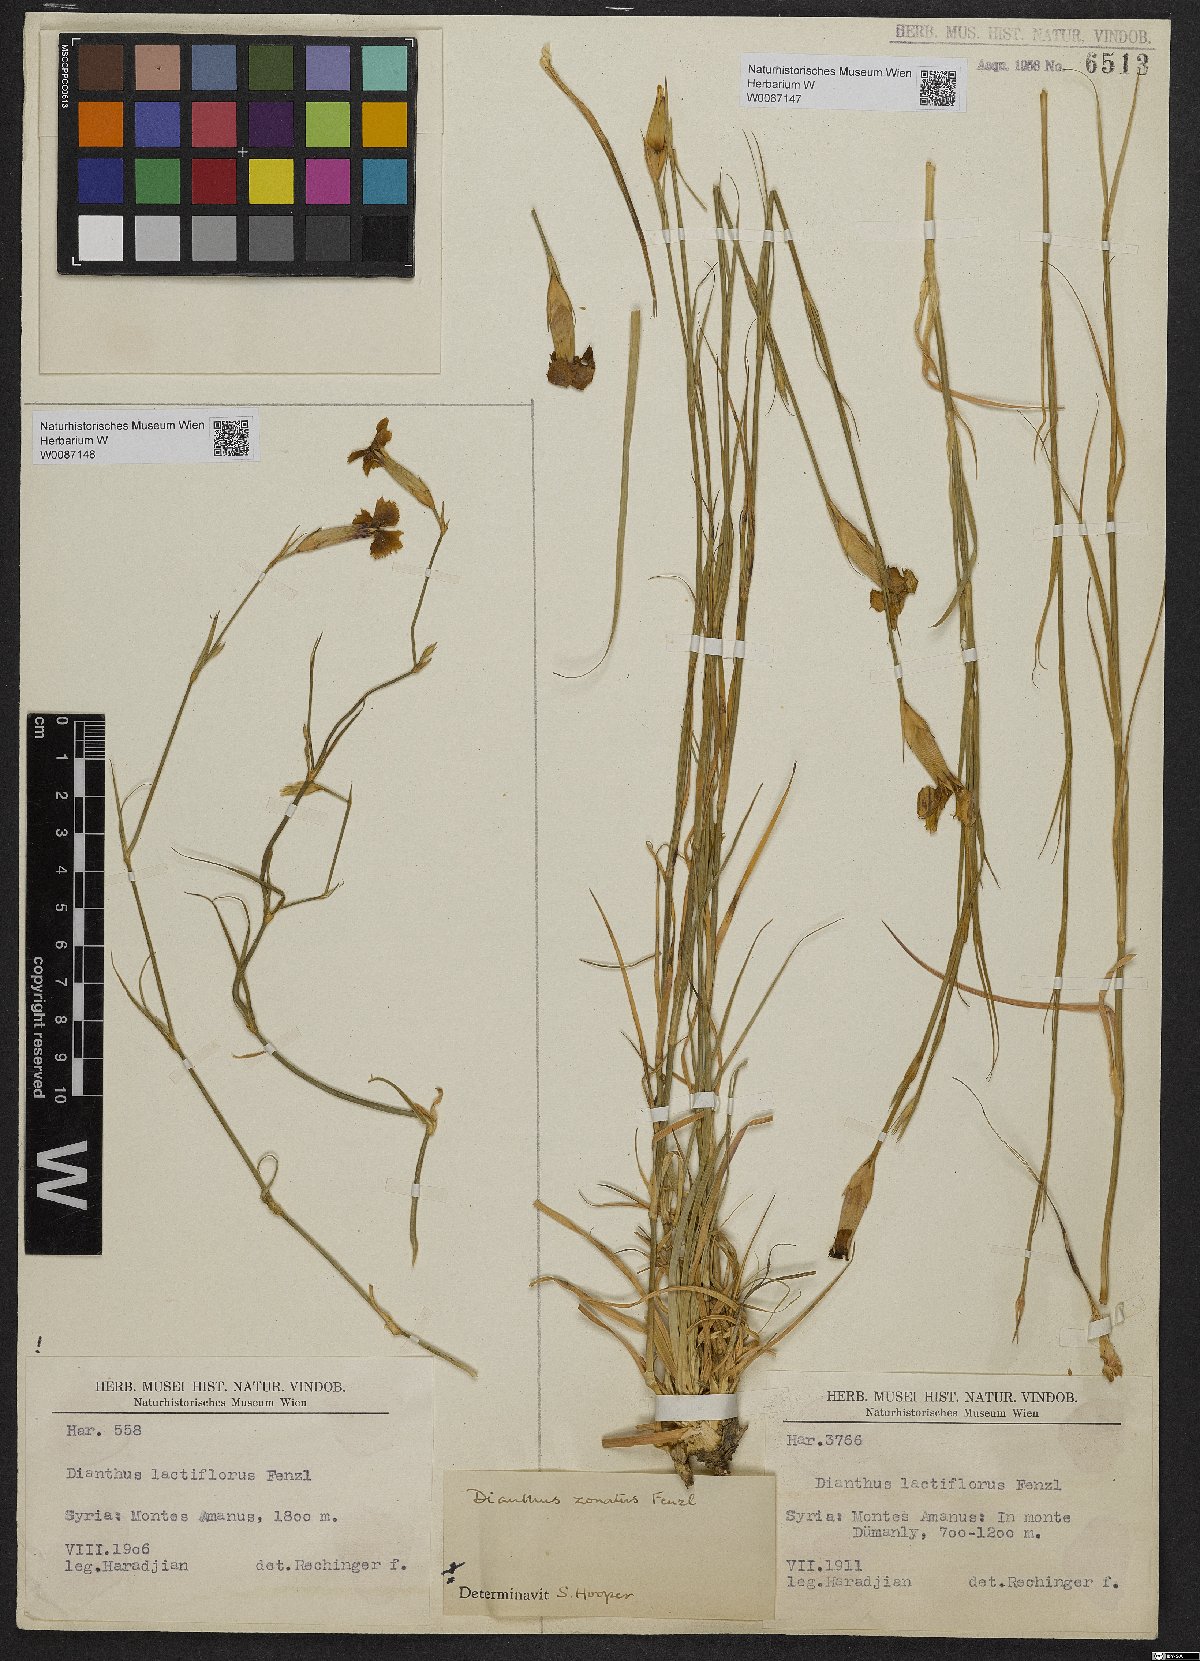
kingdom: Plantae
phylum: Tracheophyta
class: Magnoliopsida
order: Caryophyllales
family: Caryophyllaceae
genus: Dianthus
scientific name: Dianthus zonatus
